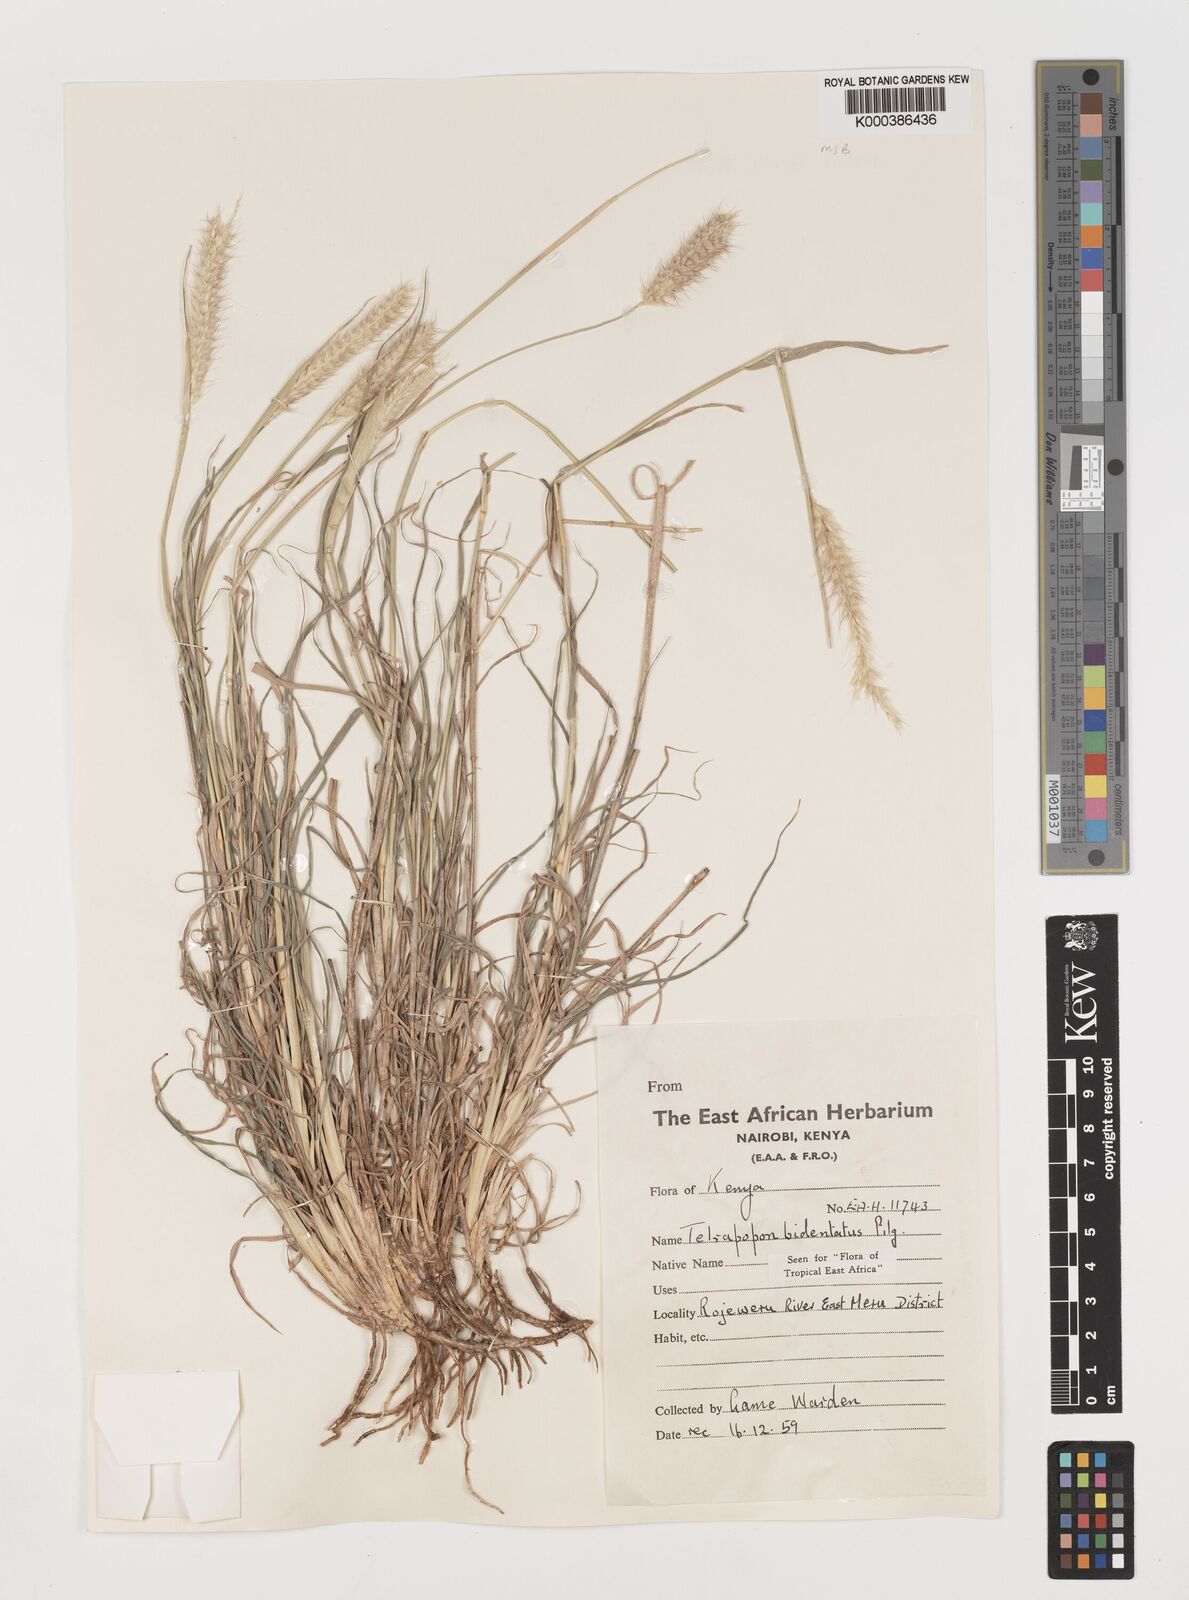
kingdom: Plantae
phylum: Tracheophyta
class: Liliopsida
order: Poales
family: Poaceae
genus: Tetrapogon
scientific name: Tetrapogon bidentatus
